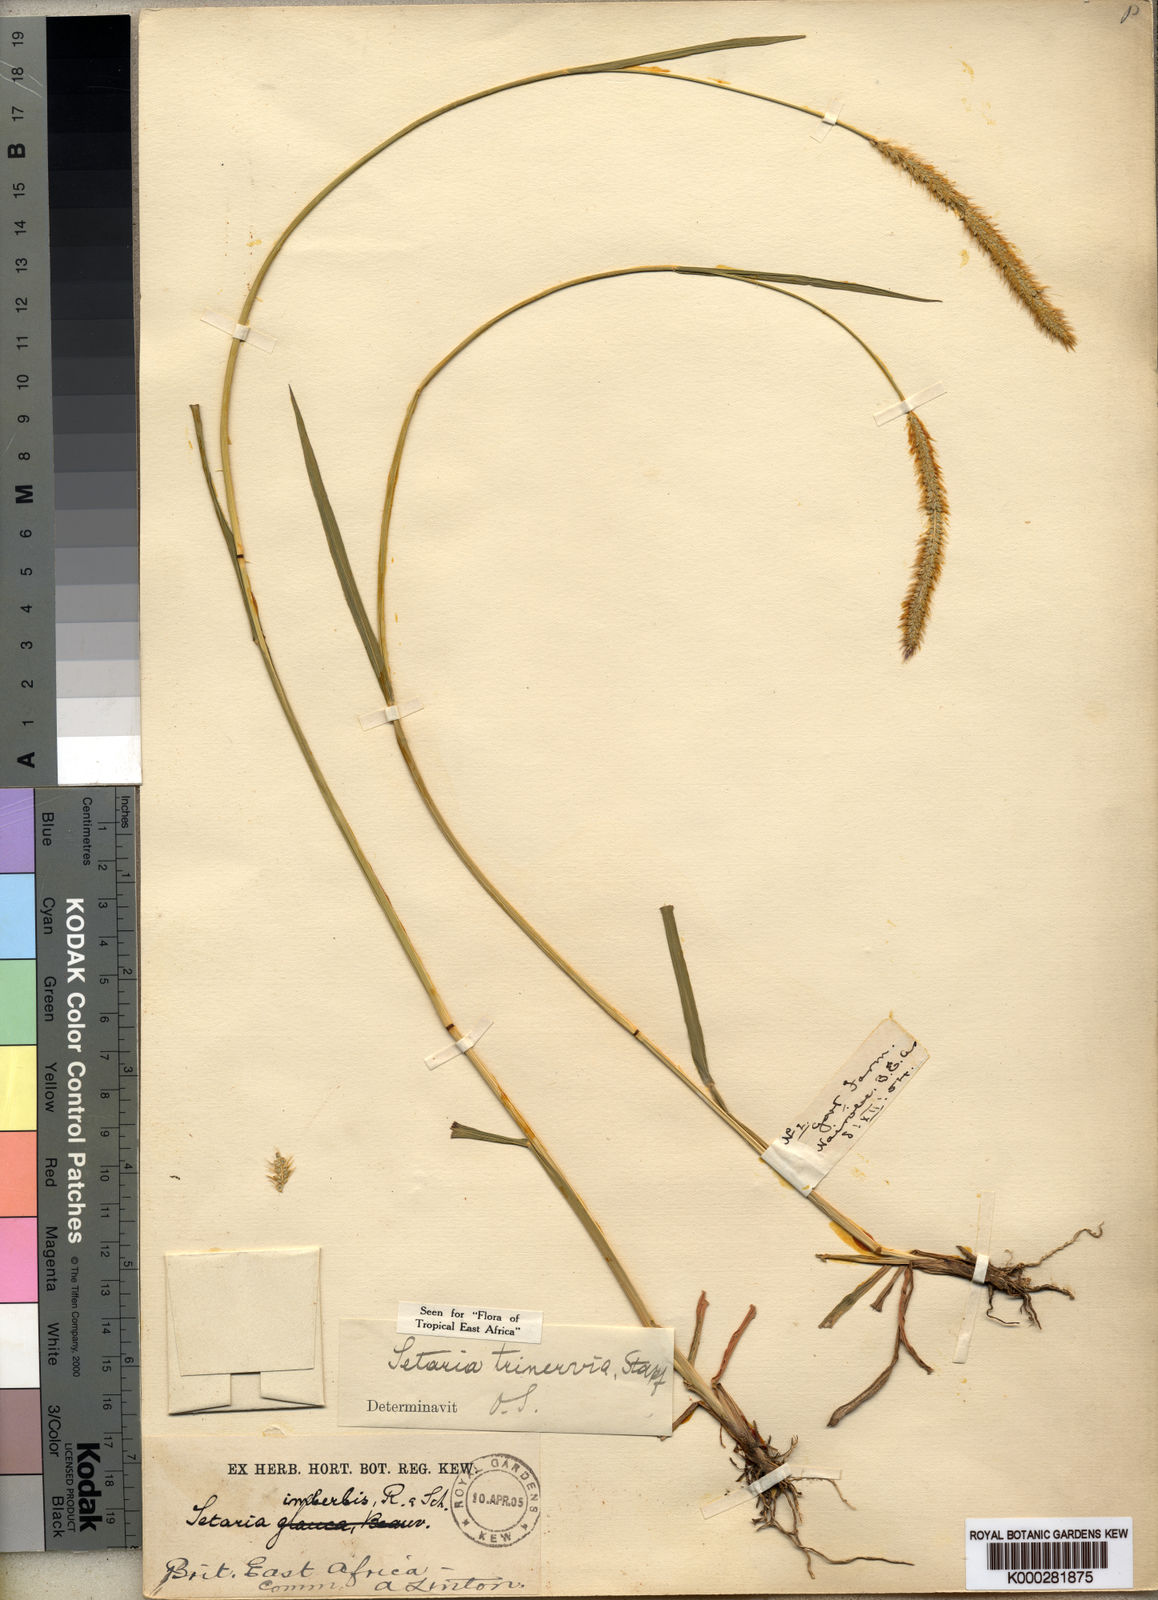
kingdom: Plantae
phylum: Tracheophyta
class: Liliopsida
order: Poales
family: Poaceae
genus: Setaria
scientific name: Setaria sphacelata
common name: African bristlegrass
